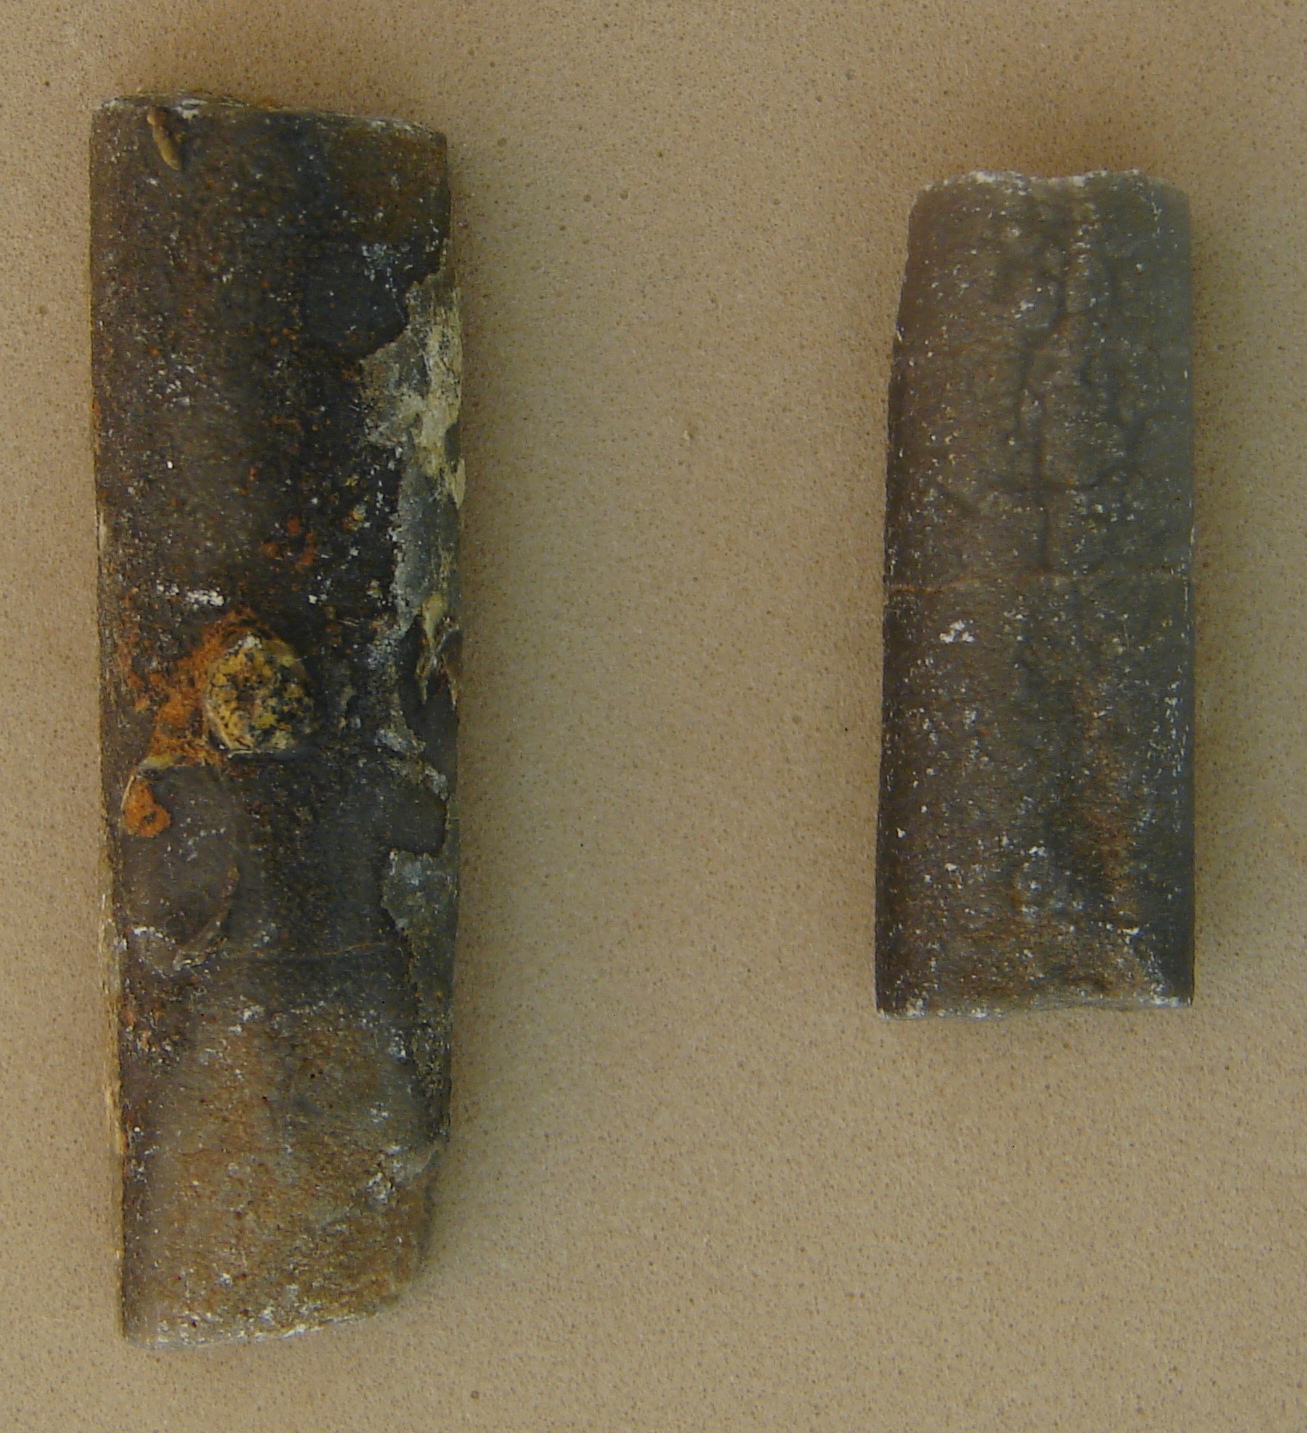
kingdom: Animalia
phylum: Mollusca
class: Cephalopoda
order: Belemnitida
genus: Holcobelus
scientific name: Holcobelus munieri
